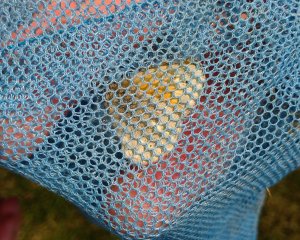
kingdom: Animalia
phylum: Arthropoda
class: Insecta
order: Lepidoptera
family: Nymphalidae
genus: Coenonympha
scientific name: Coenonympha tullia
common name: Large Heath
